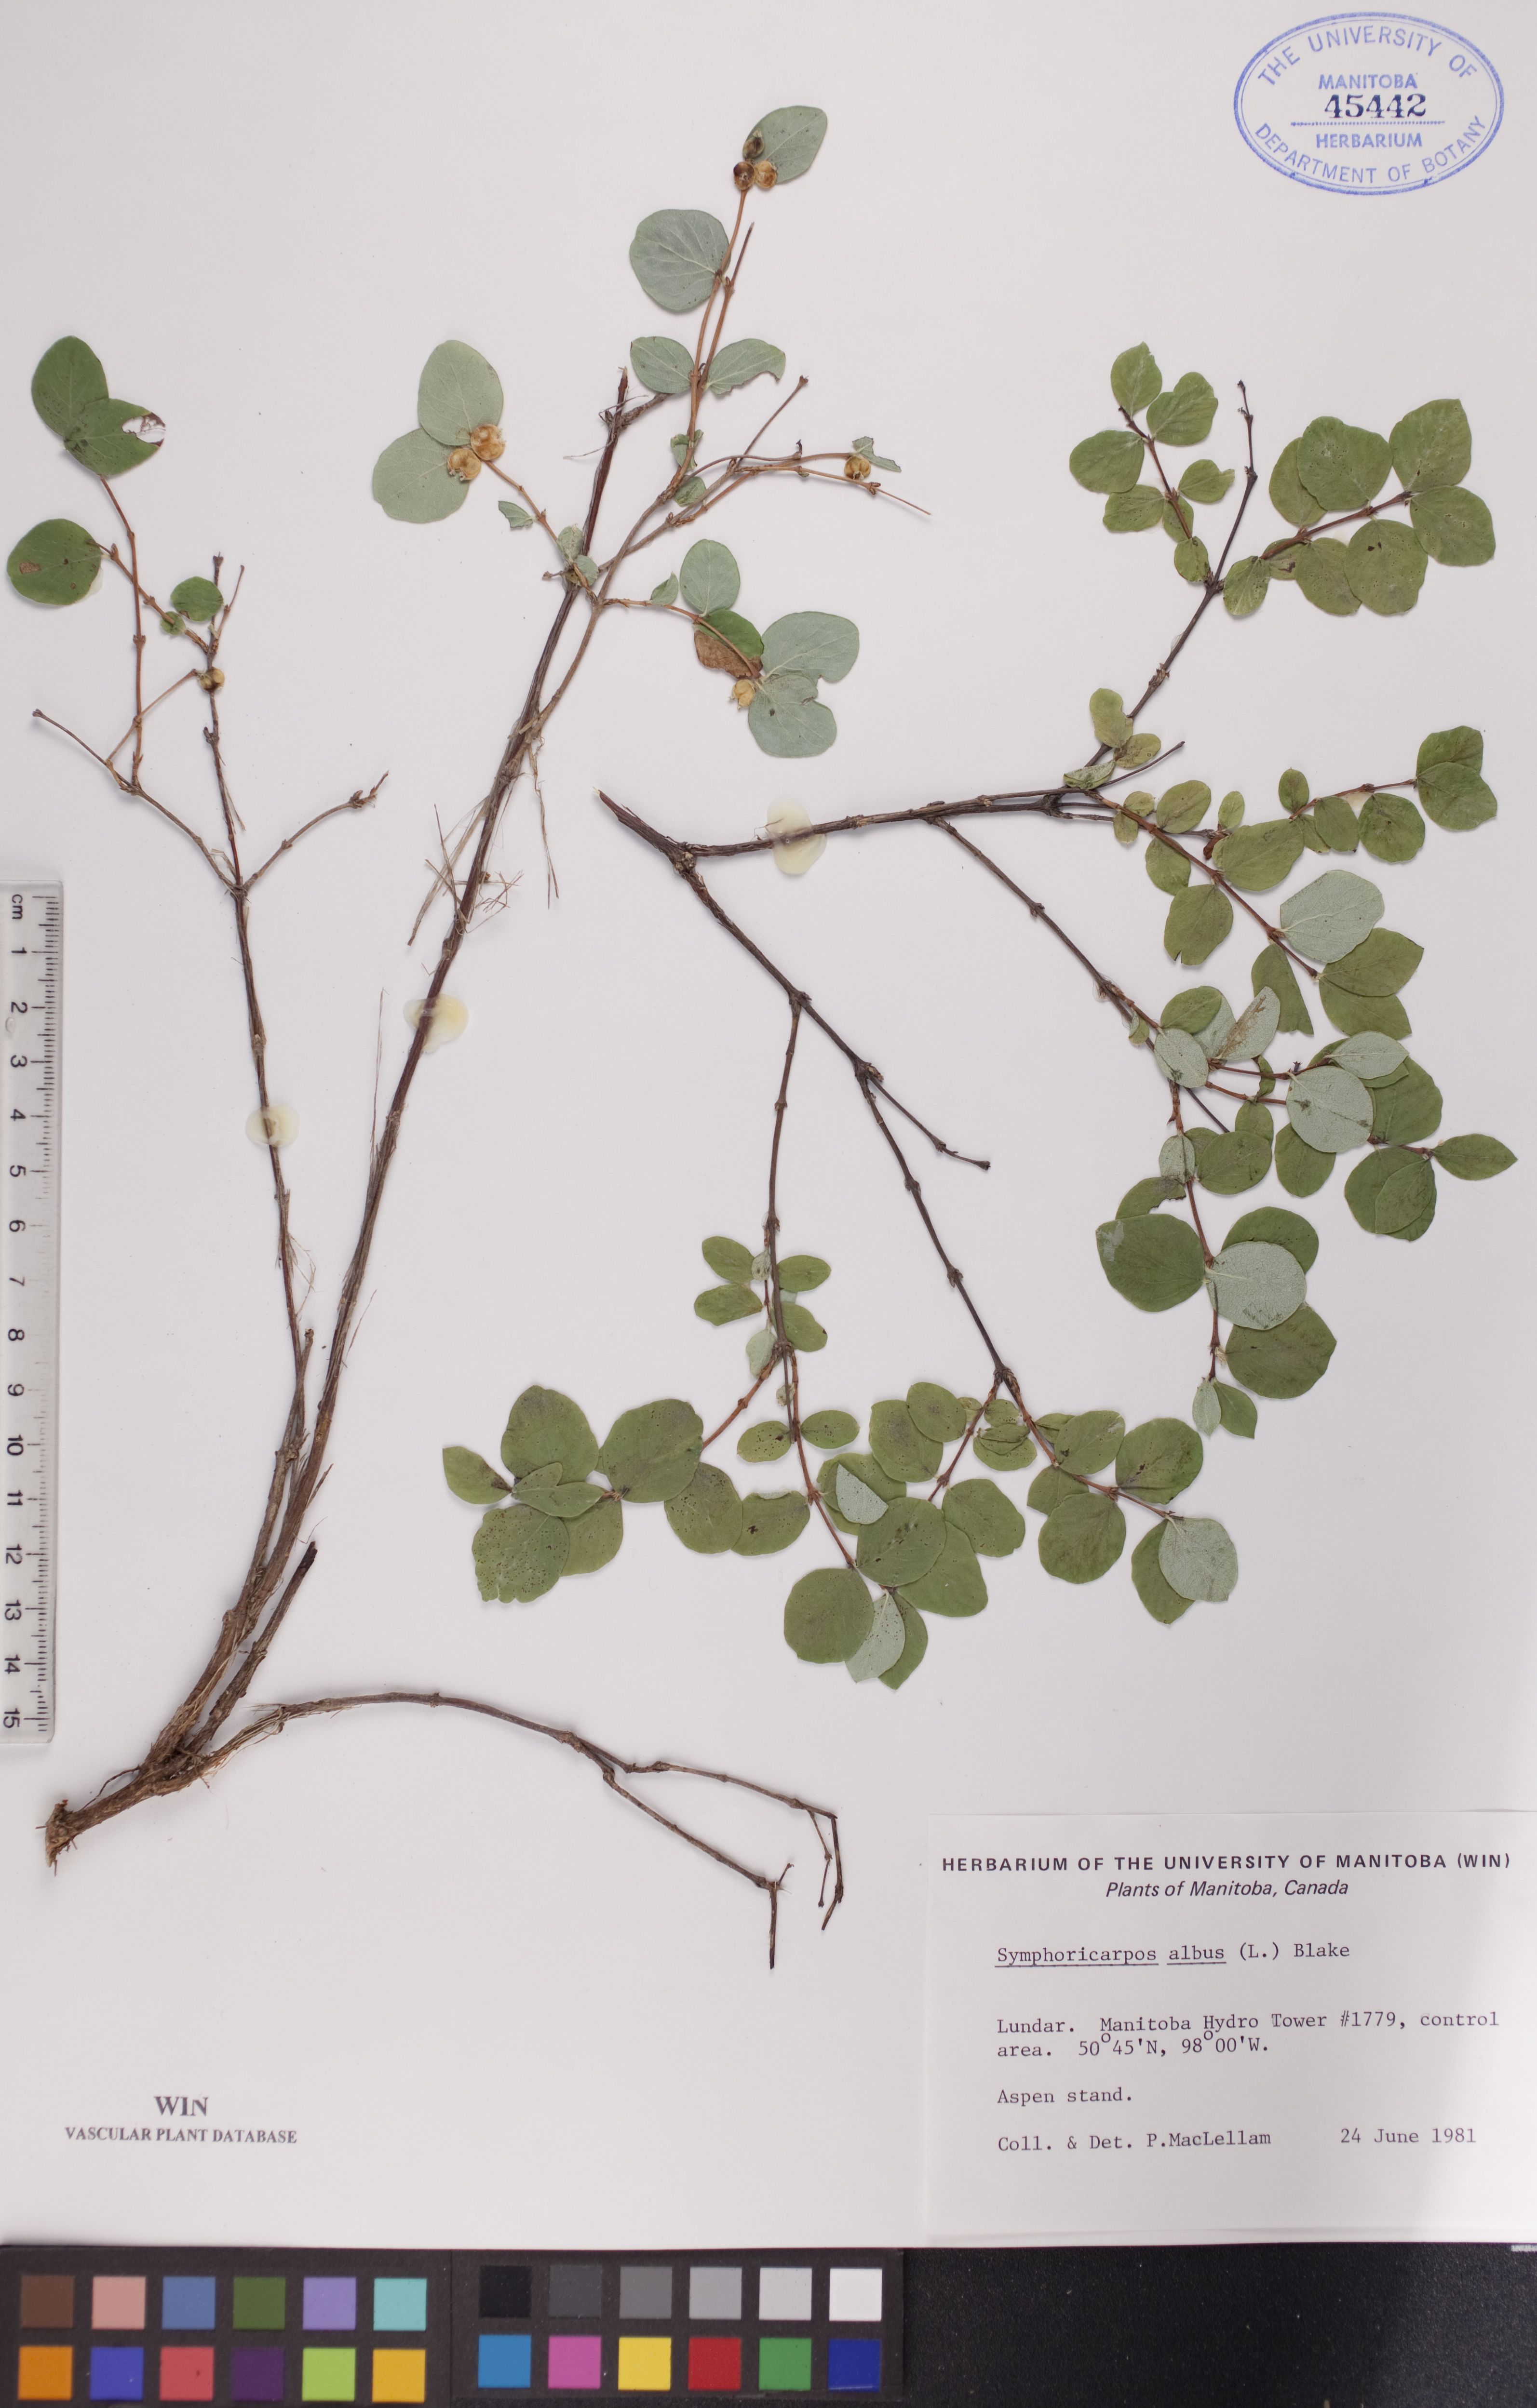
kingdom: Plantae
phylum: Tracheophyta
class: Magnoliopsida
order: Dipsacales
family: Caprifoliaceae
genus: Symphoricarpos
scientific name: Symphoricarpos albus
